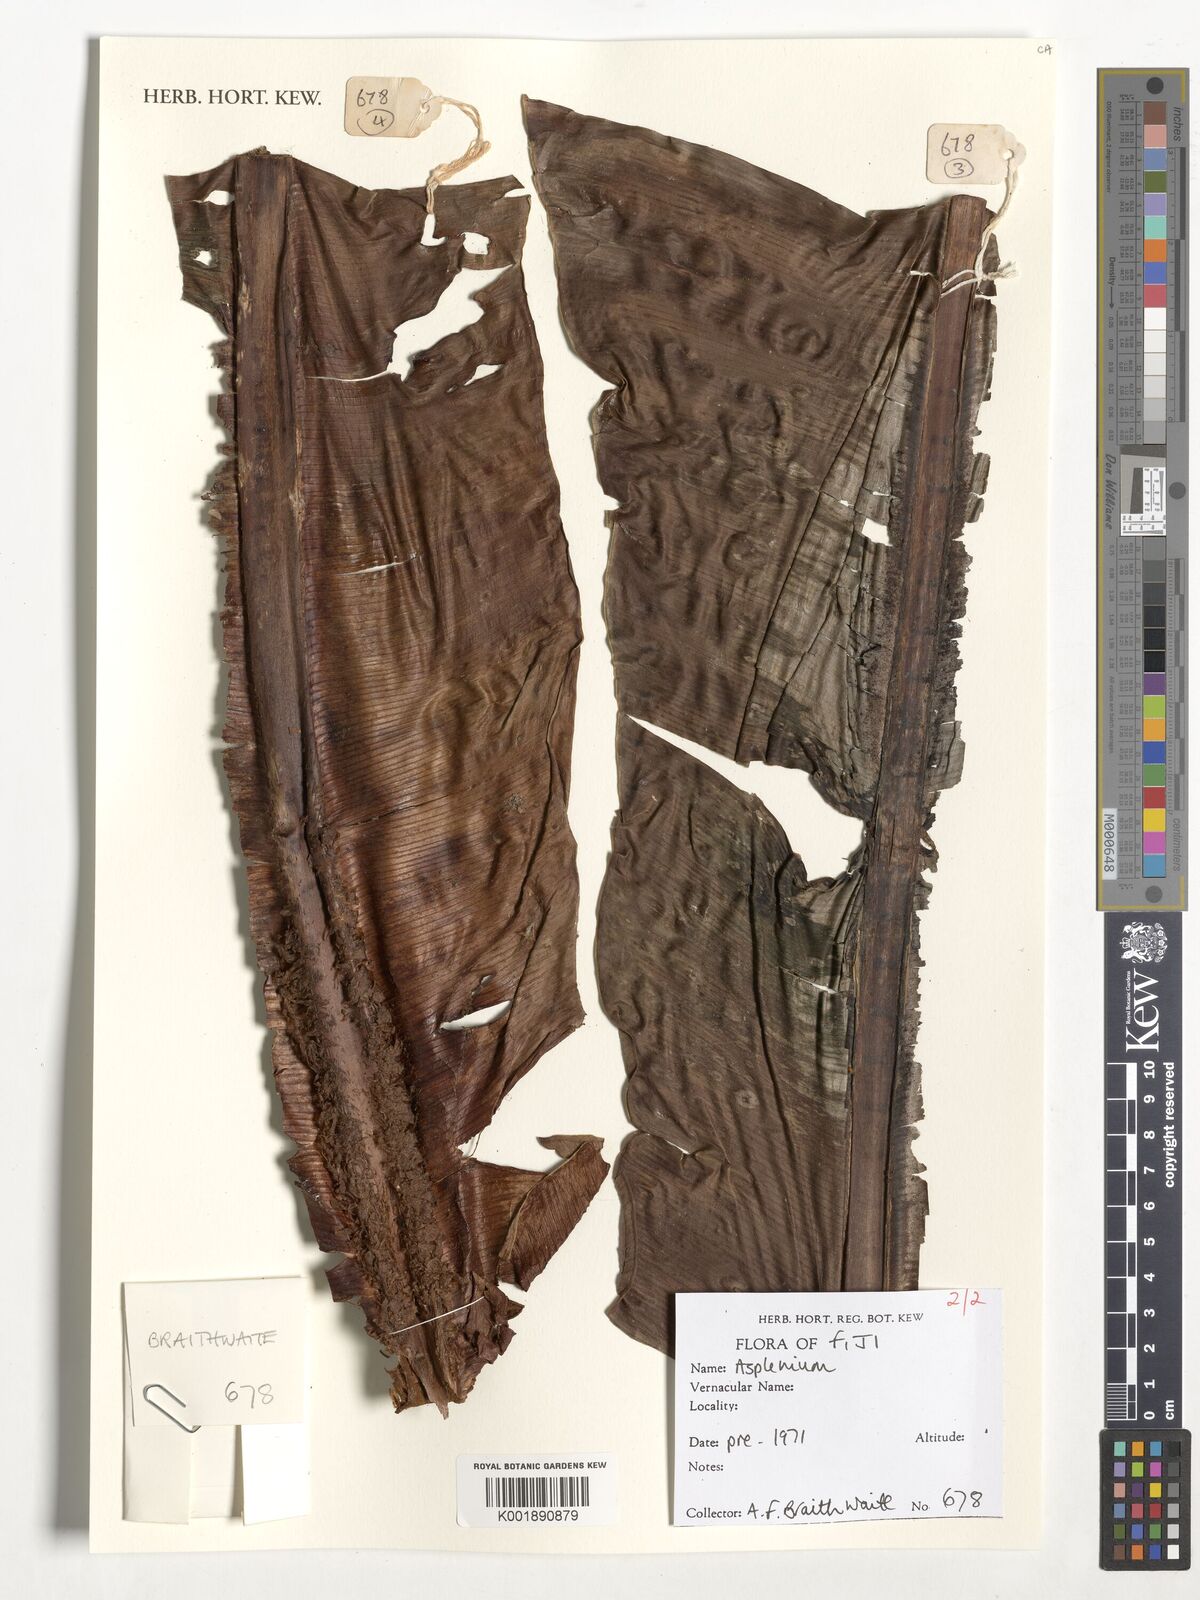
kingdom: Plantae
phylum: Tracheophyta
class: Polypodiopsida
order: Polypodiales
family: Aspleniaceae
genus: Asplenium
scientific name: Asplenium
